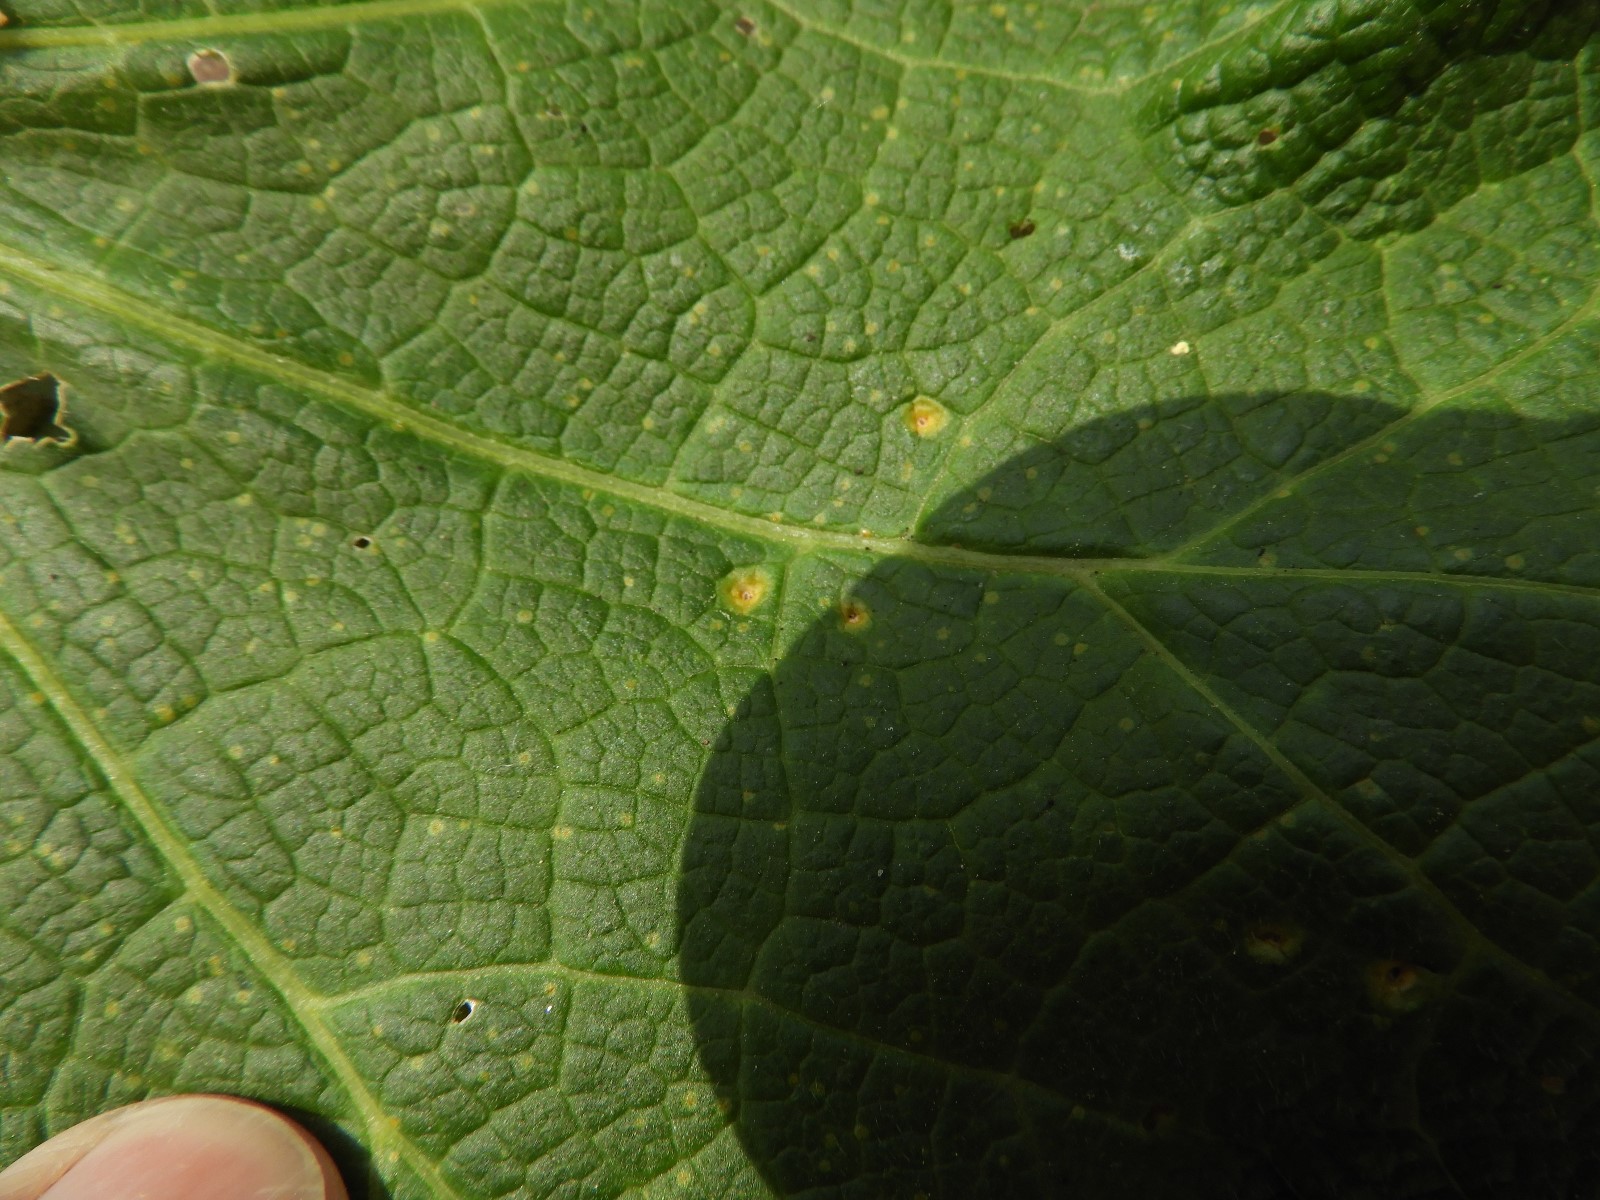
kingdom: Fungi
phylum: Basidiomycota
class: Pucciniomycetes
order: Pucciniales
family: Pucciniaceae
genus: Puccinia
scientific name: Puccinia malvacearum
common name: stokrose-tvecellerust
